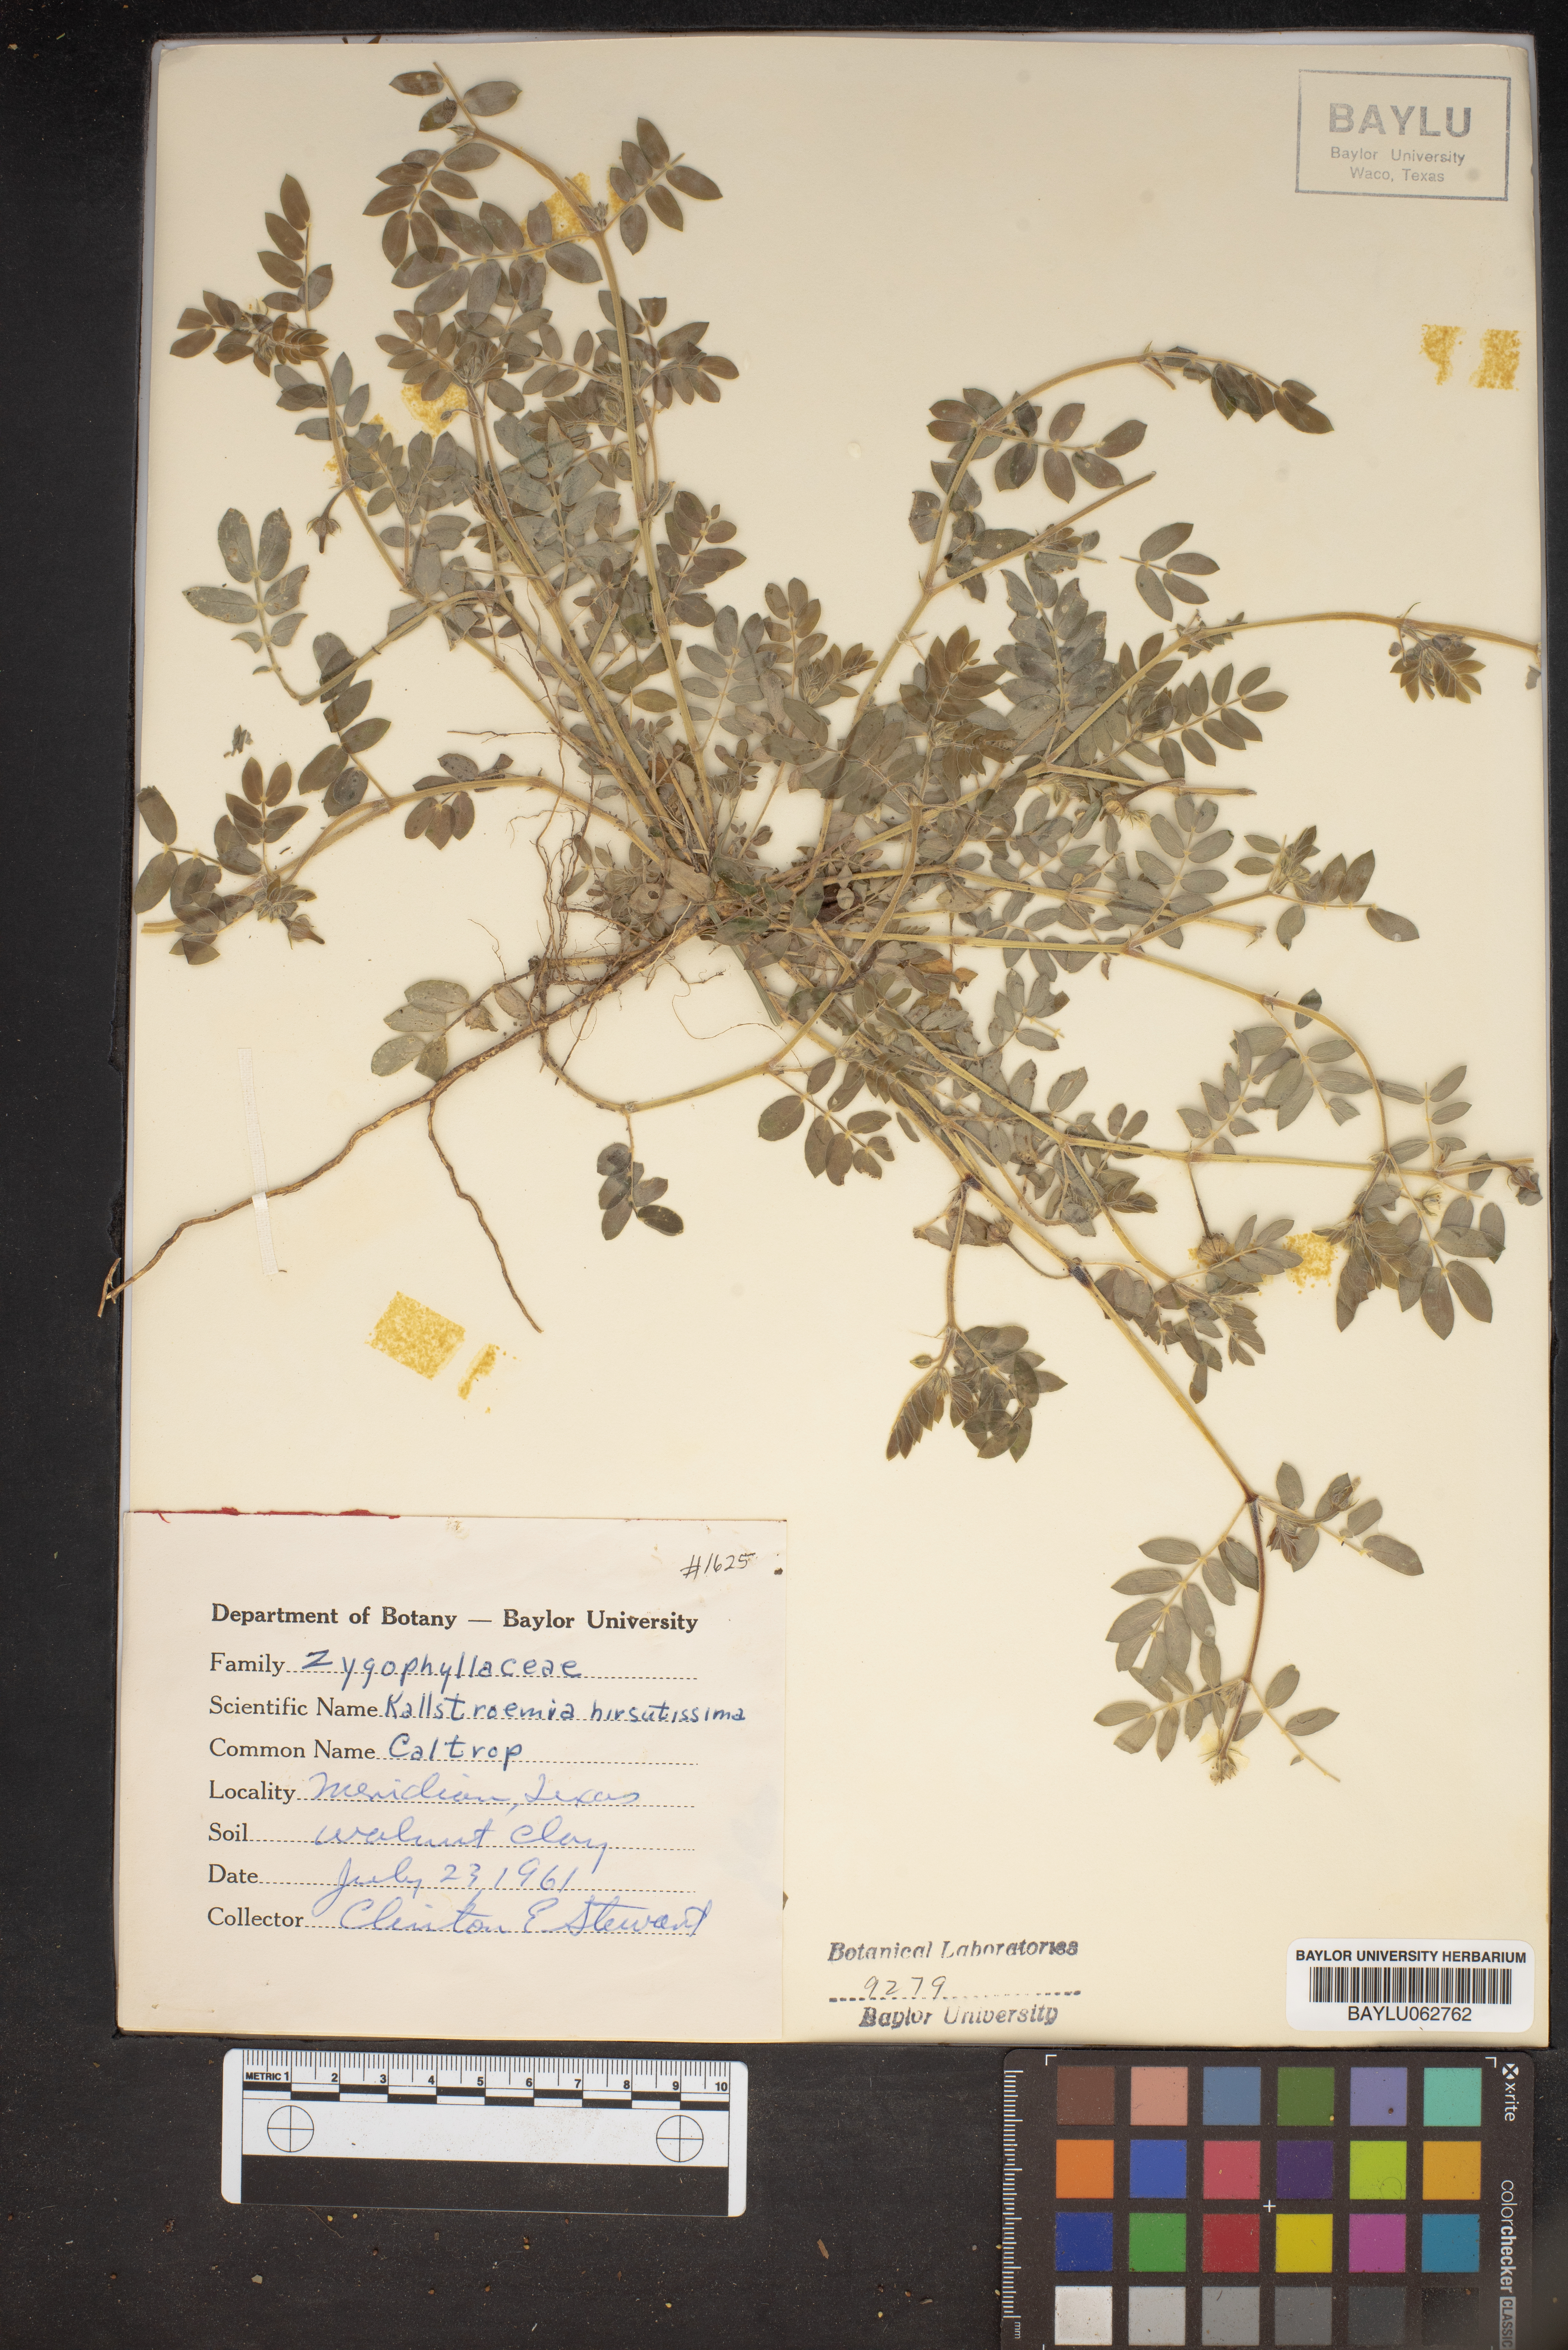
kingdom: Plantae
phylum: Tracheophyta
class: Magnoliopsida
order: Zygophyllales
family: Zygophyllaceae
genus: Kallstroemia
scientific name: Kallstroemia hirsutissima
